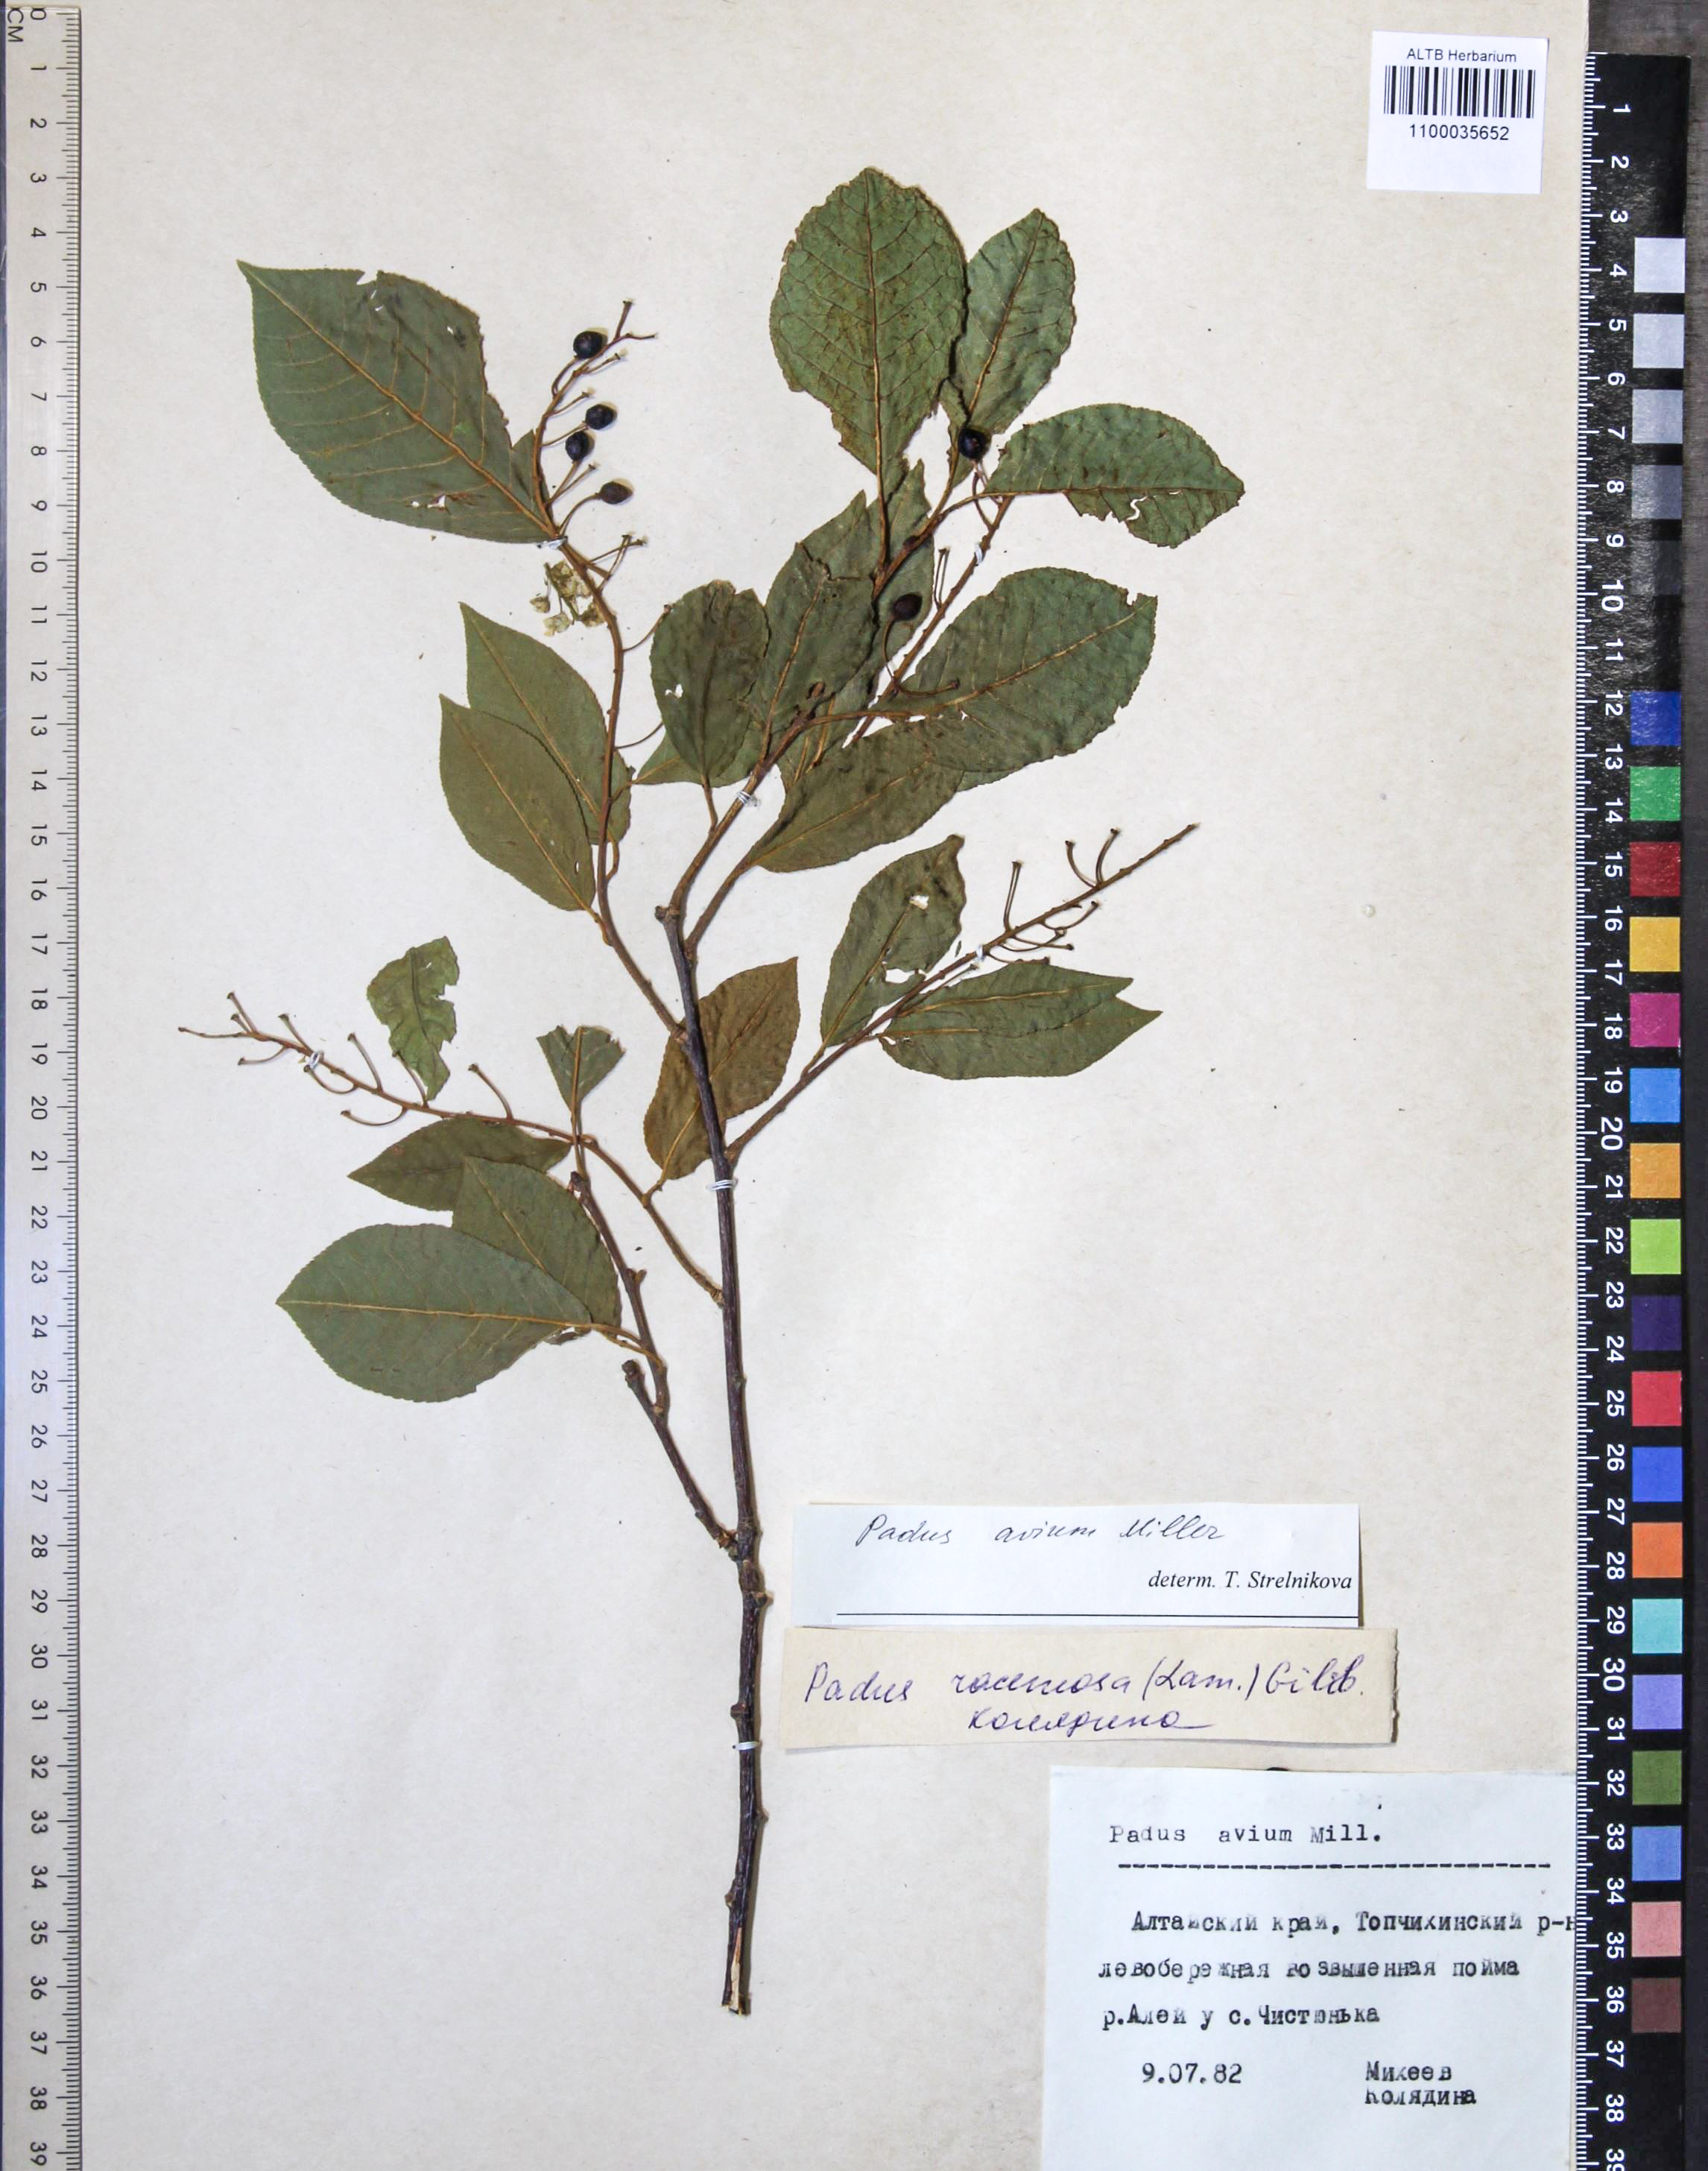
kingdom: Plantae
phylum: Tracheophyta
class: Magnoliopsida
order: Rosales
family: Rosaceae
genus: Prunus
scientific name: Prunus padus
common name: Bird cherry
